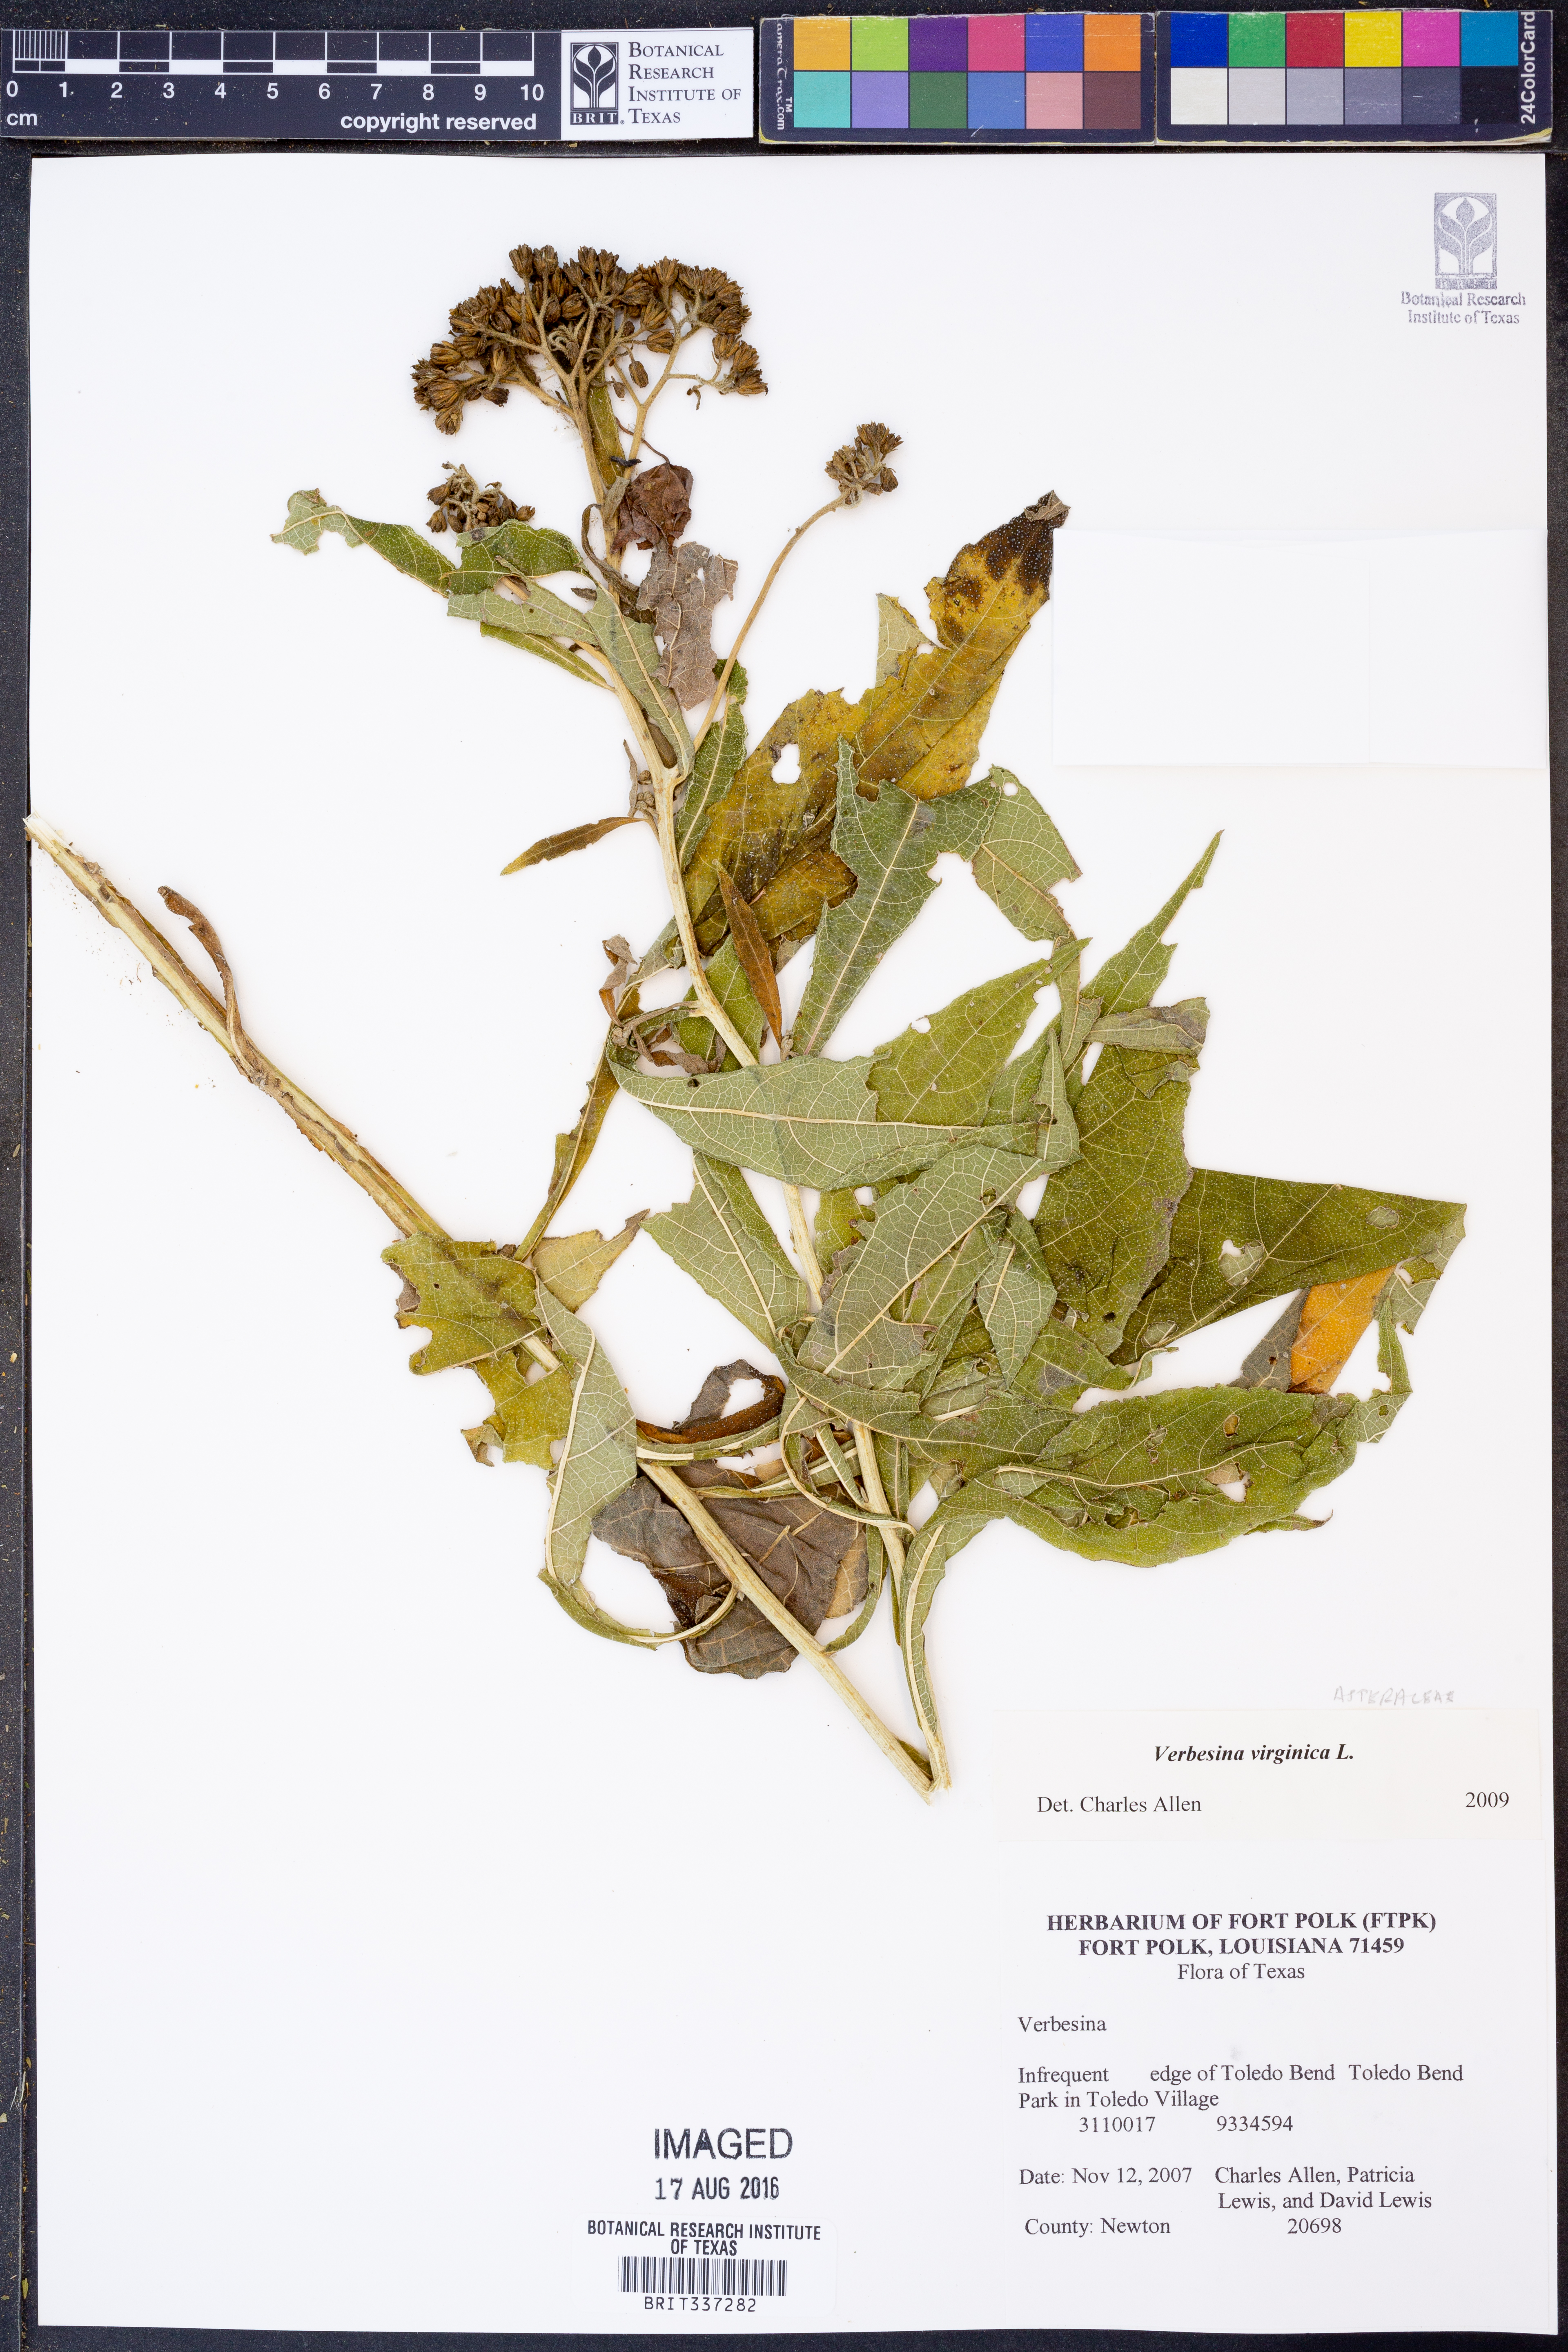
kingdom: Plantae
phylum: Tracheophyta
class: Magnoliopsida
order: Asterales
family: Asteraceae
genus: Verbesina
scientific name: Verbesina virginica
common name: Frostweed
